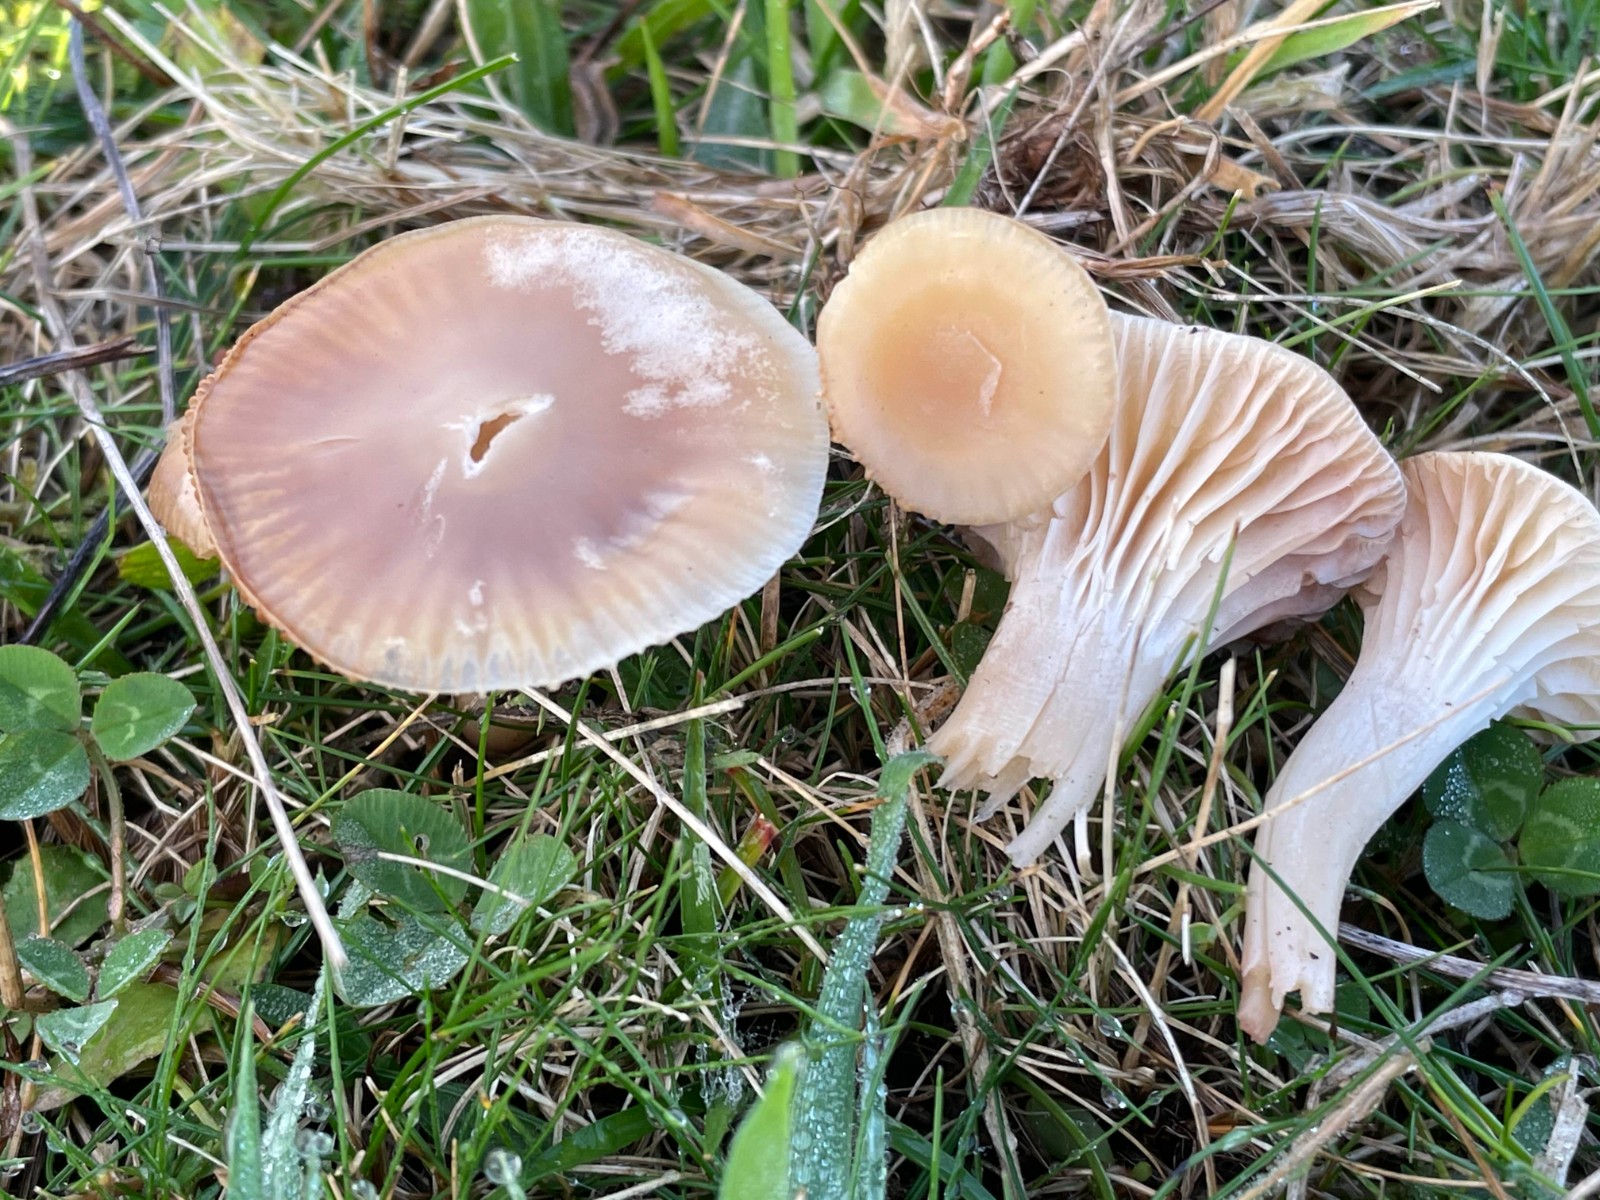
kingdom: Fungi
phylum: Basidiomycota
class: Agaricomycetes
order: Agaricales
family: Hygrophoraceae
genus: Cuphophyllus
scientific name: Cuphophyllus
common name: vokshat
